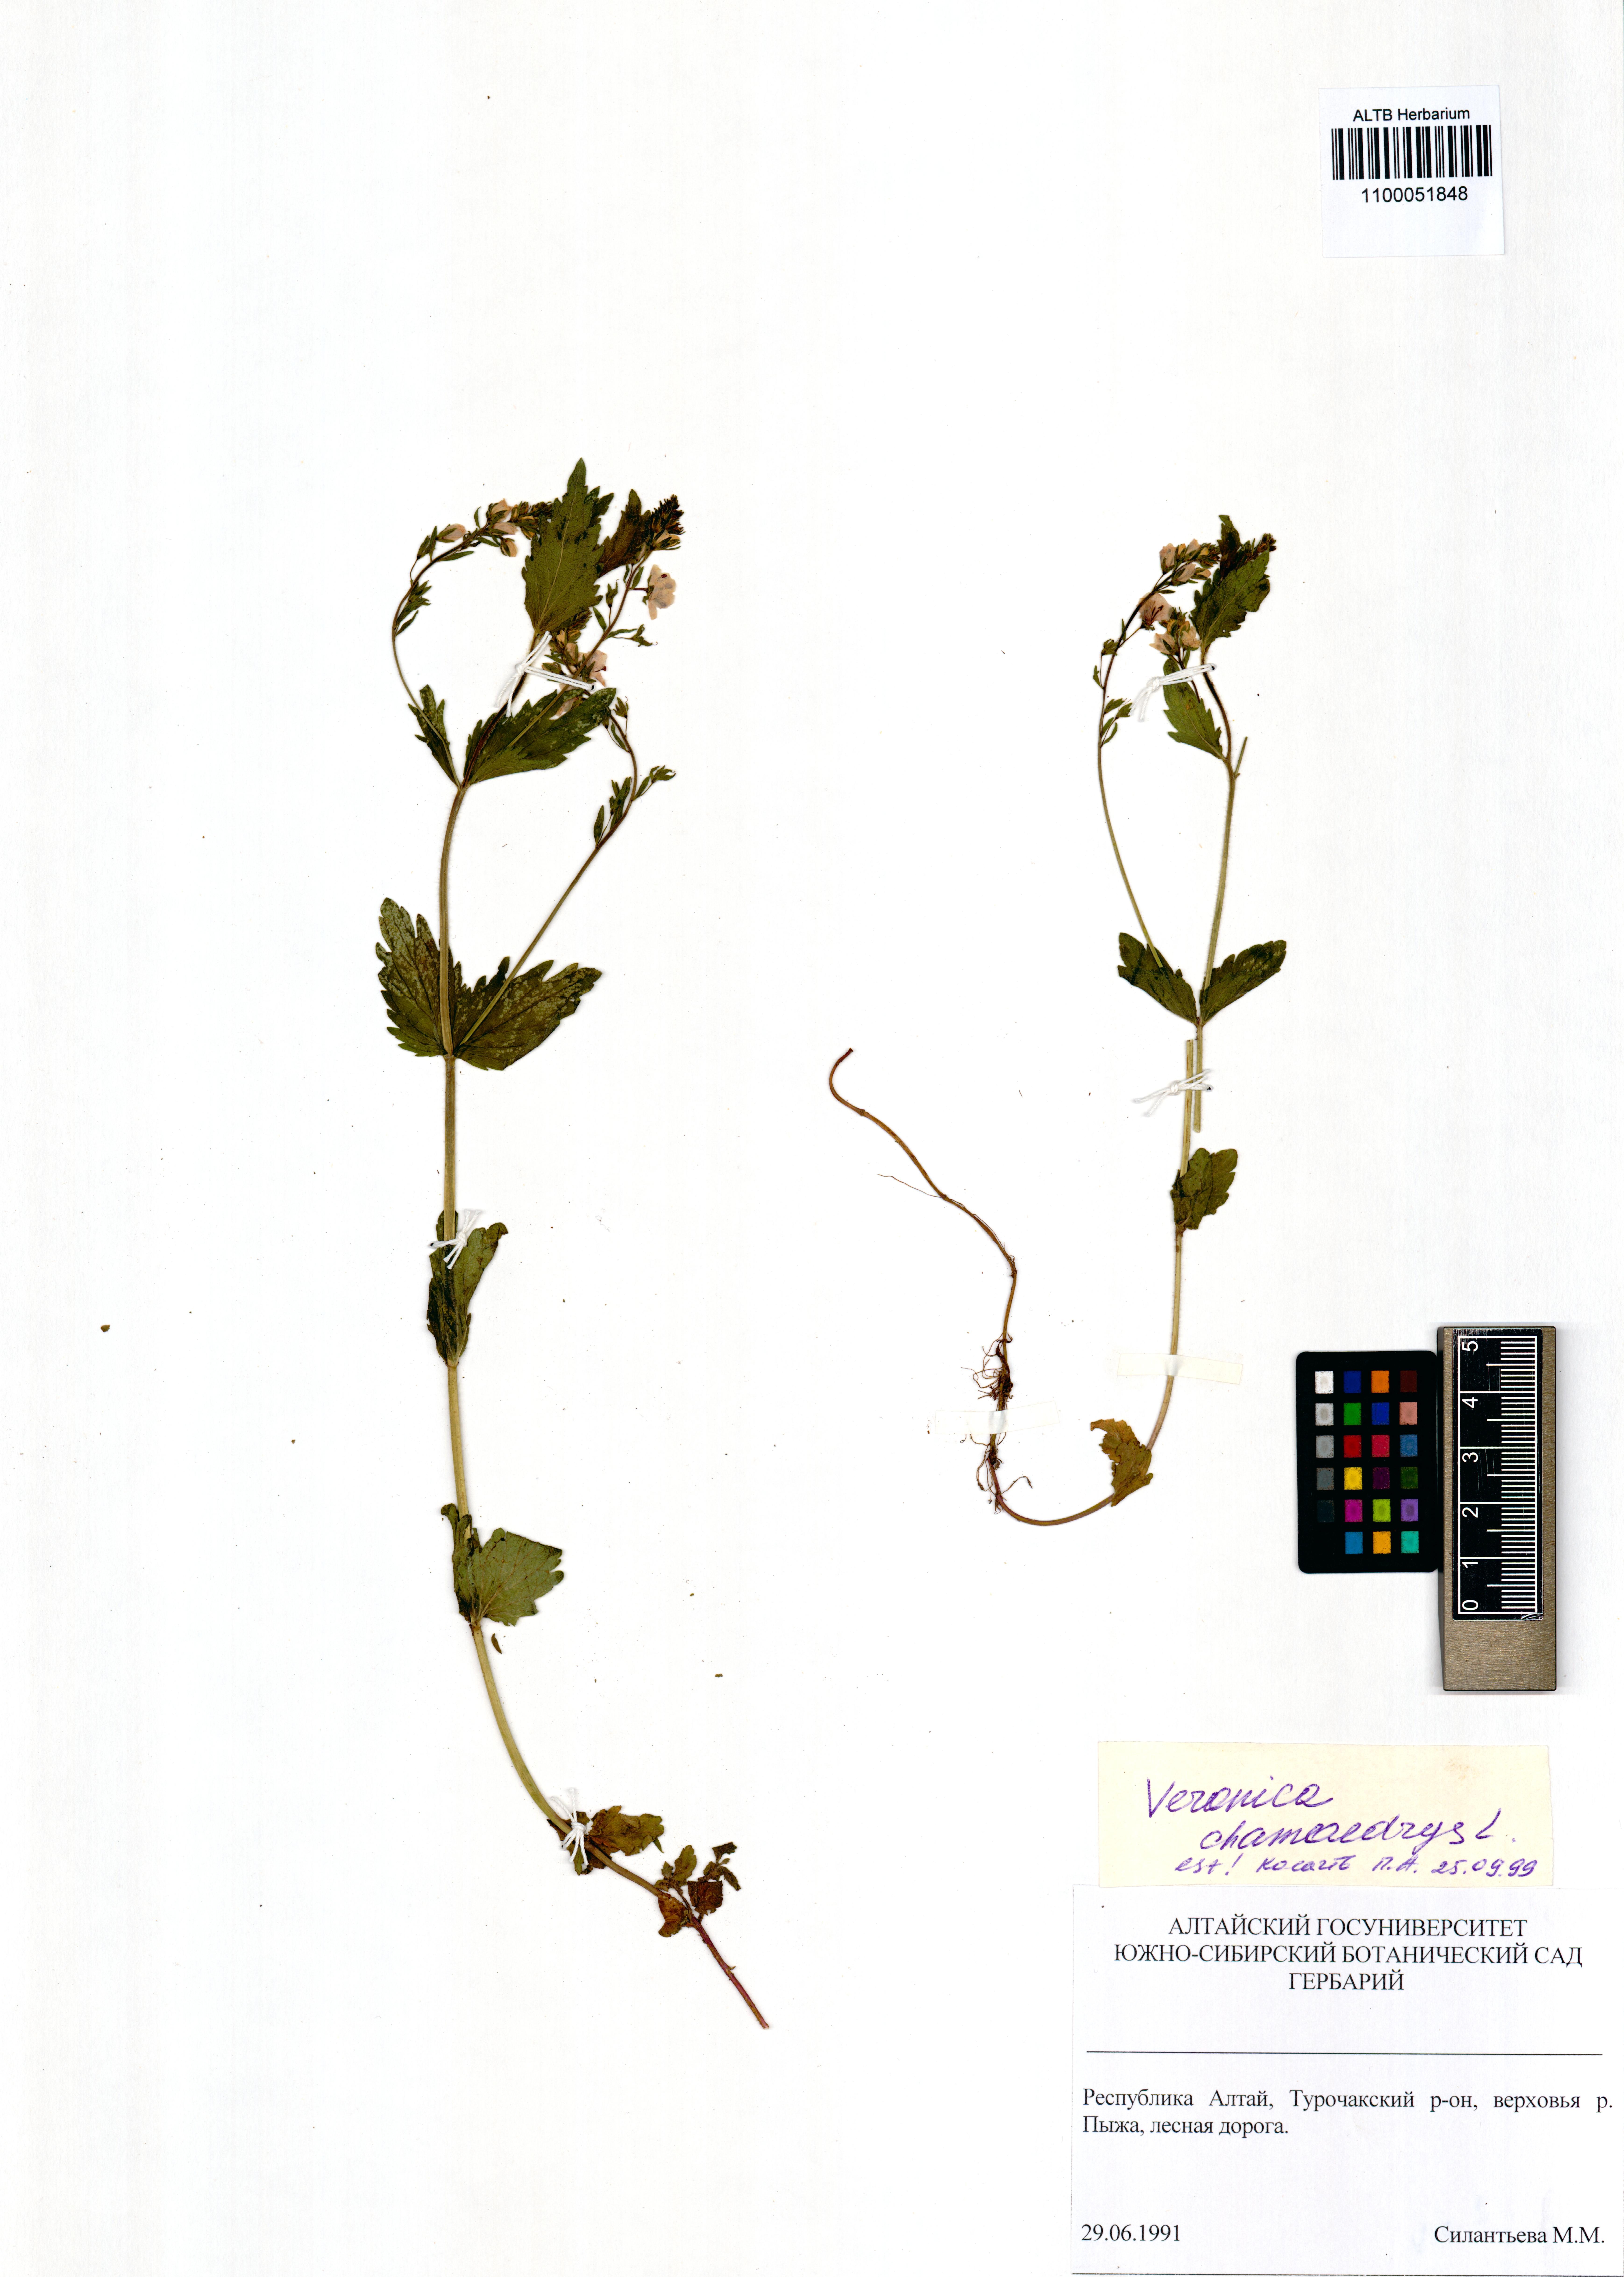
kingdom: Plantae
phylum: Tracheophyta
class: Magnoliopsida
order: Lamiales
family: Plantaginaceae
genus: Veronica
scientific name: Veronica chamaedrys
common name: Germander speedwell
